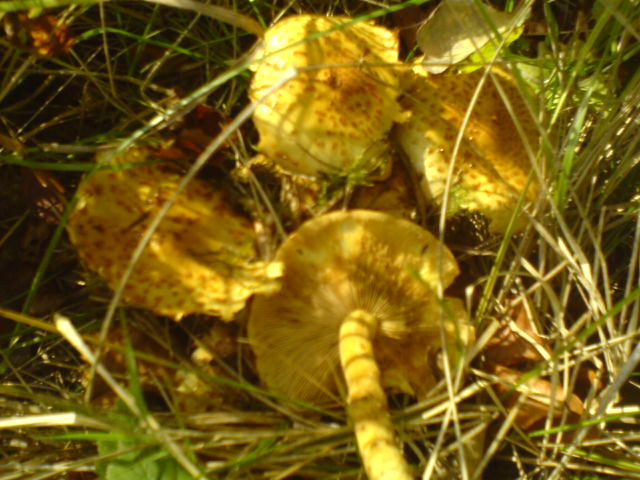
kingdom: Fungi
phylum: Basidiomycota
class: Agaricomycetes
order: Agaricales
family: Strophariaceae
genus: Pholiota
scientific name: Pholiota jahnii
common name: slimet skælhat
